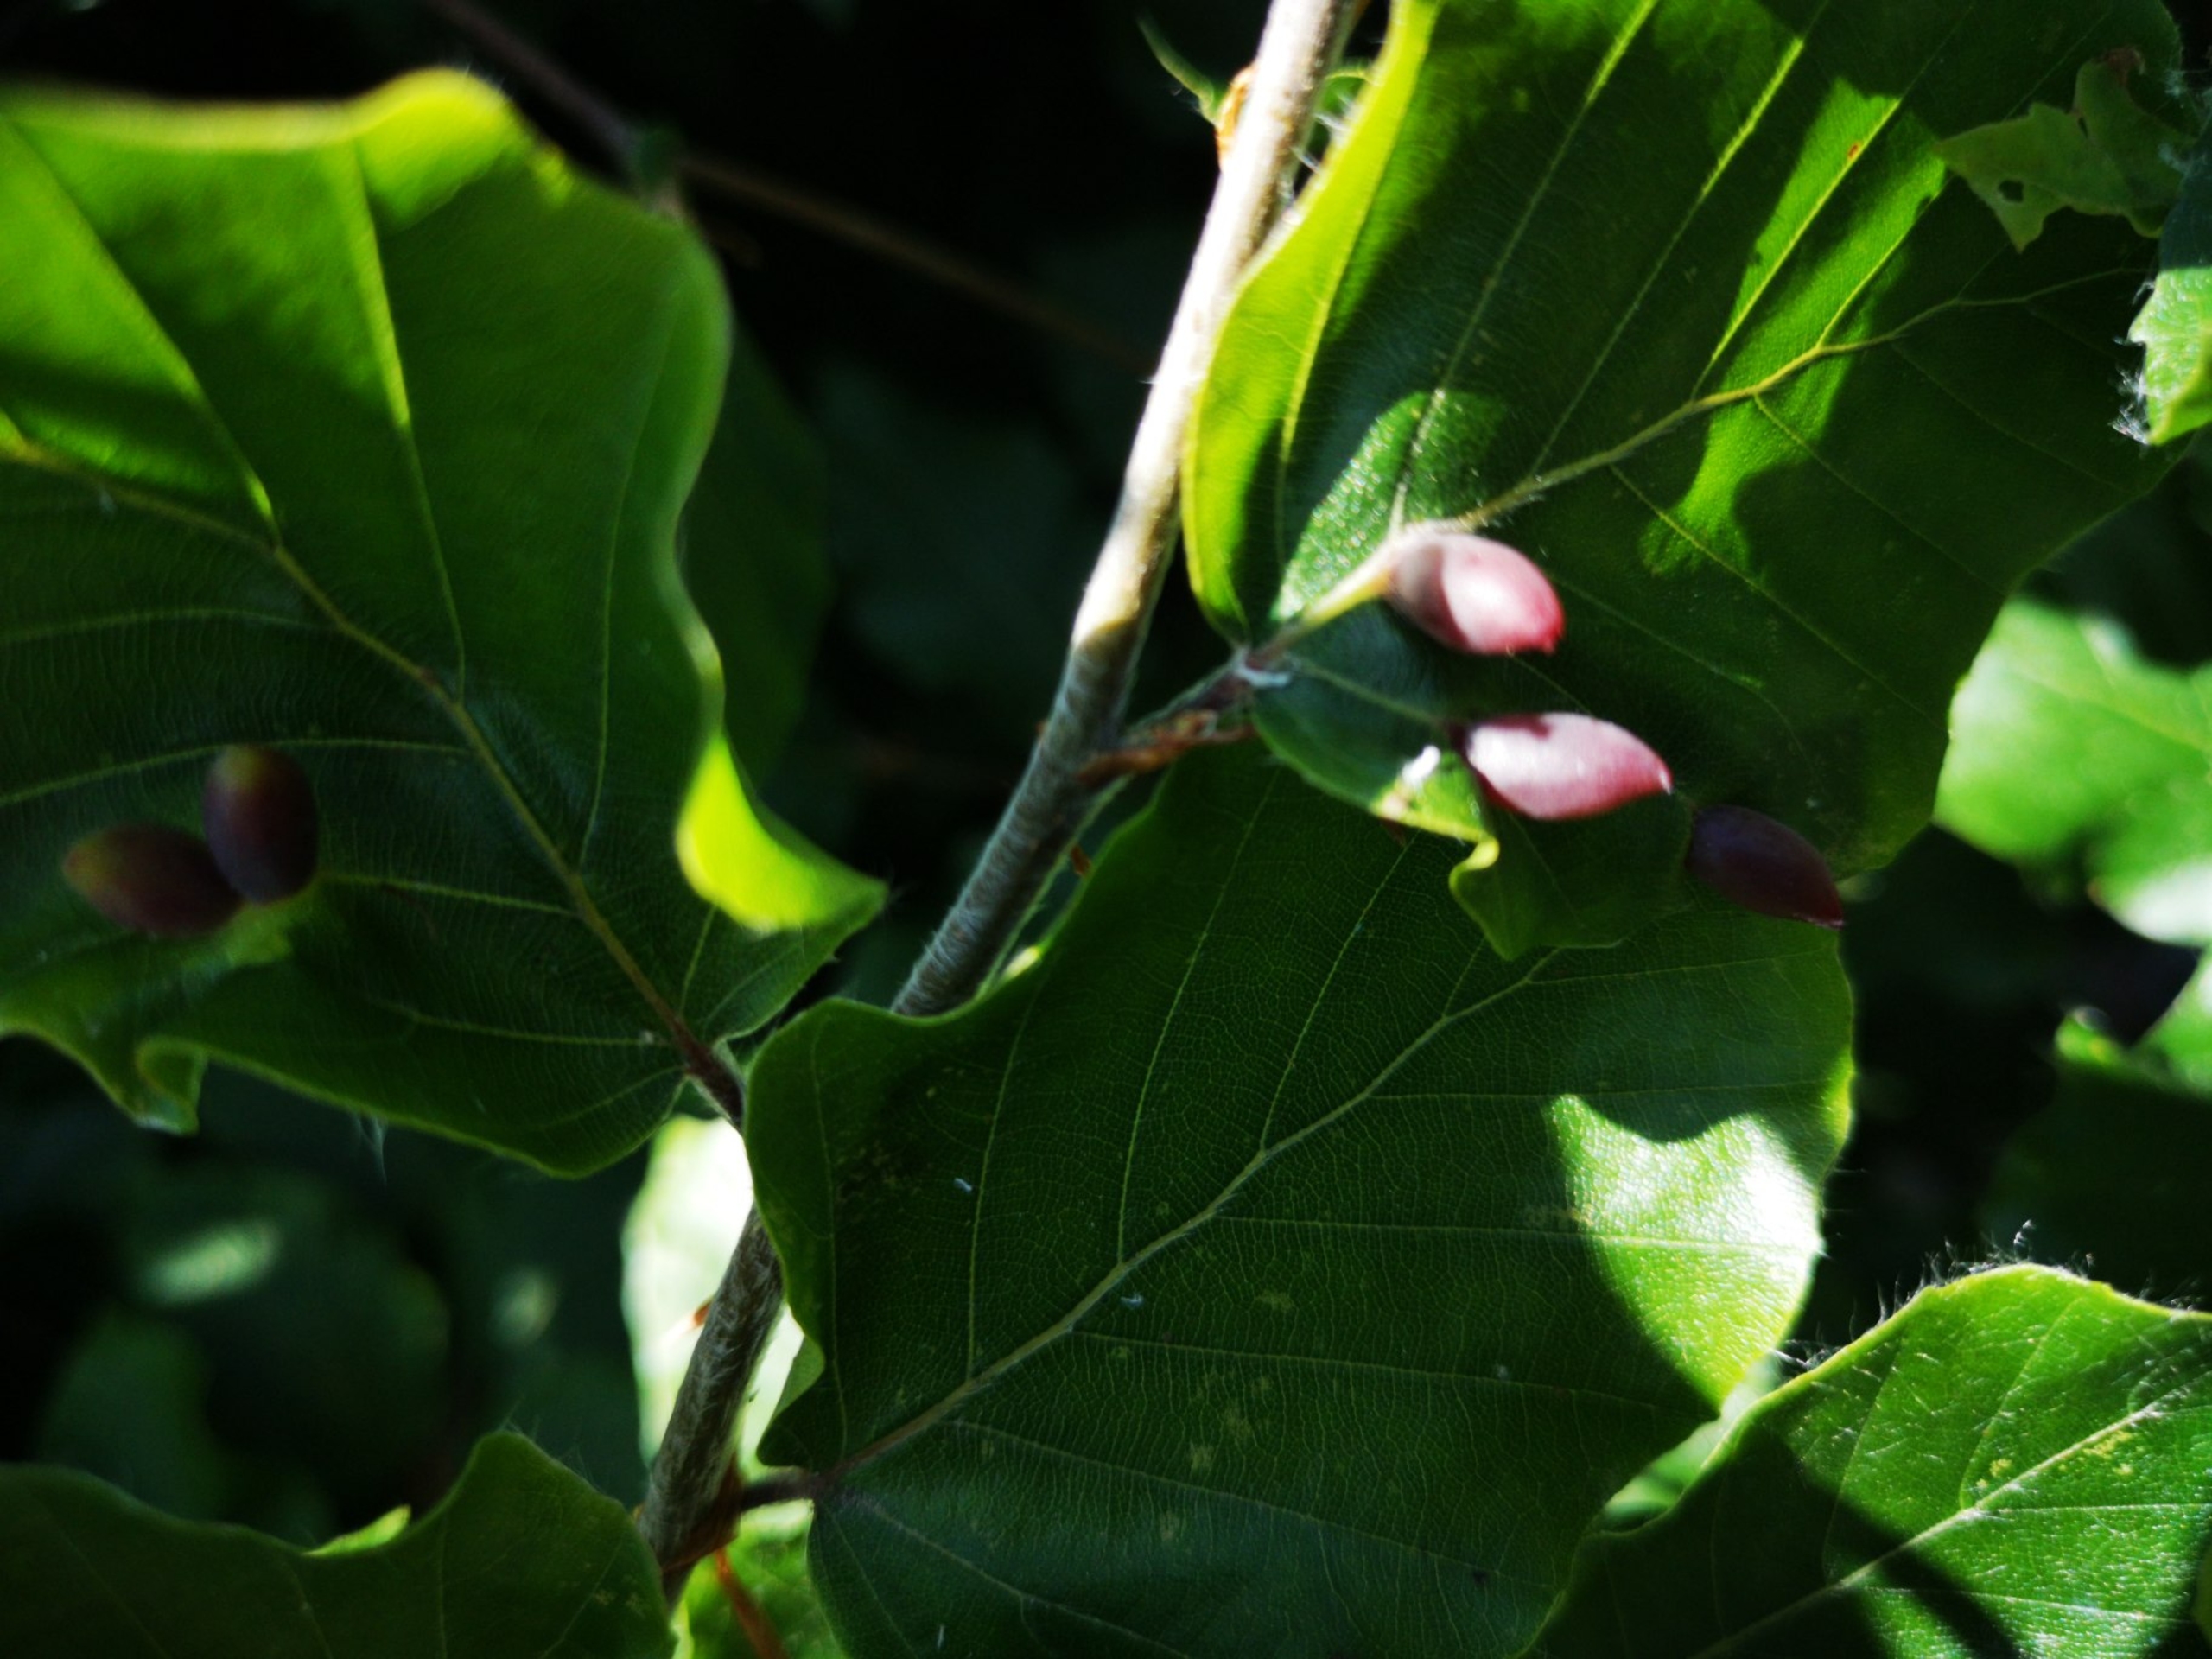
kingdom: Animalia
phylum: Arthropoda
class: Insecta
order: Diptera
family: Cecidomyiidae
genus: Mikiola
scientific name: Mikiola fagi
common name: Bøgegalmyg
